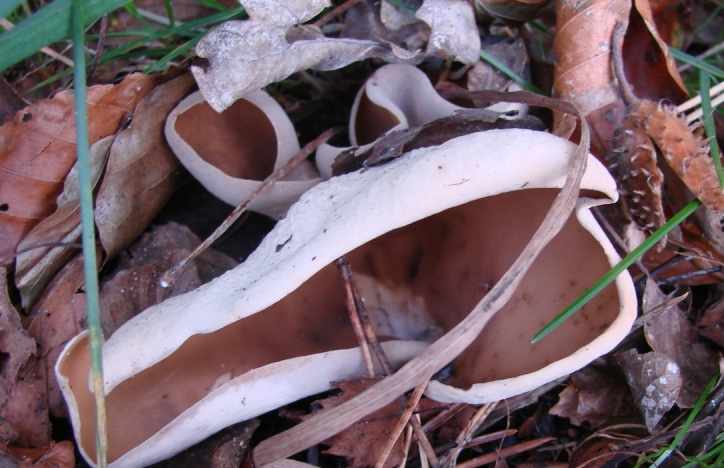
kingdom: Fungi
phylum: Ascomycota
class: Pezizomycetes
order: Pezizales
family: Otideaceae
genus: Otidea
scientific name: Otidea alutacea
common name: læder-ørebæger
